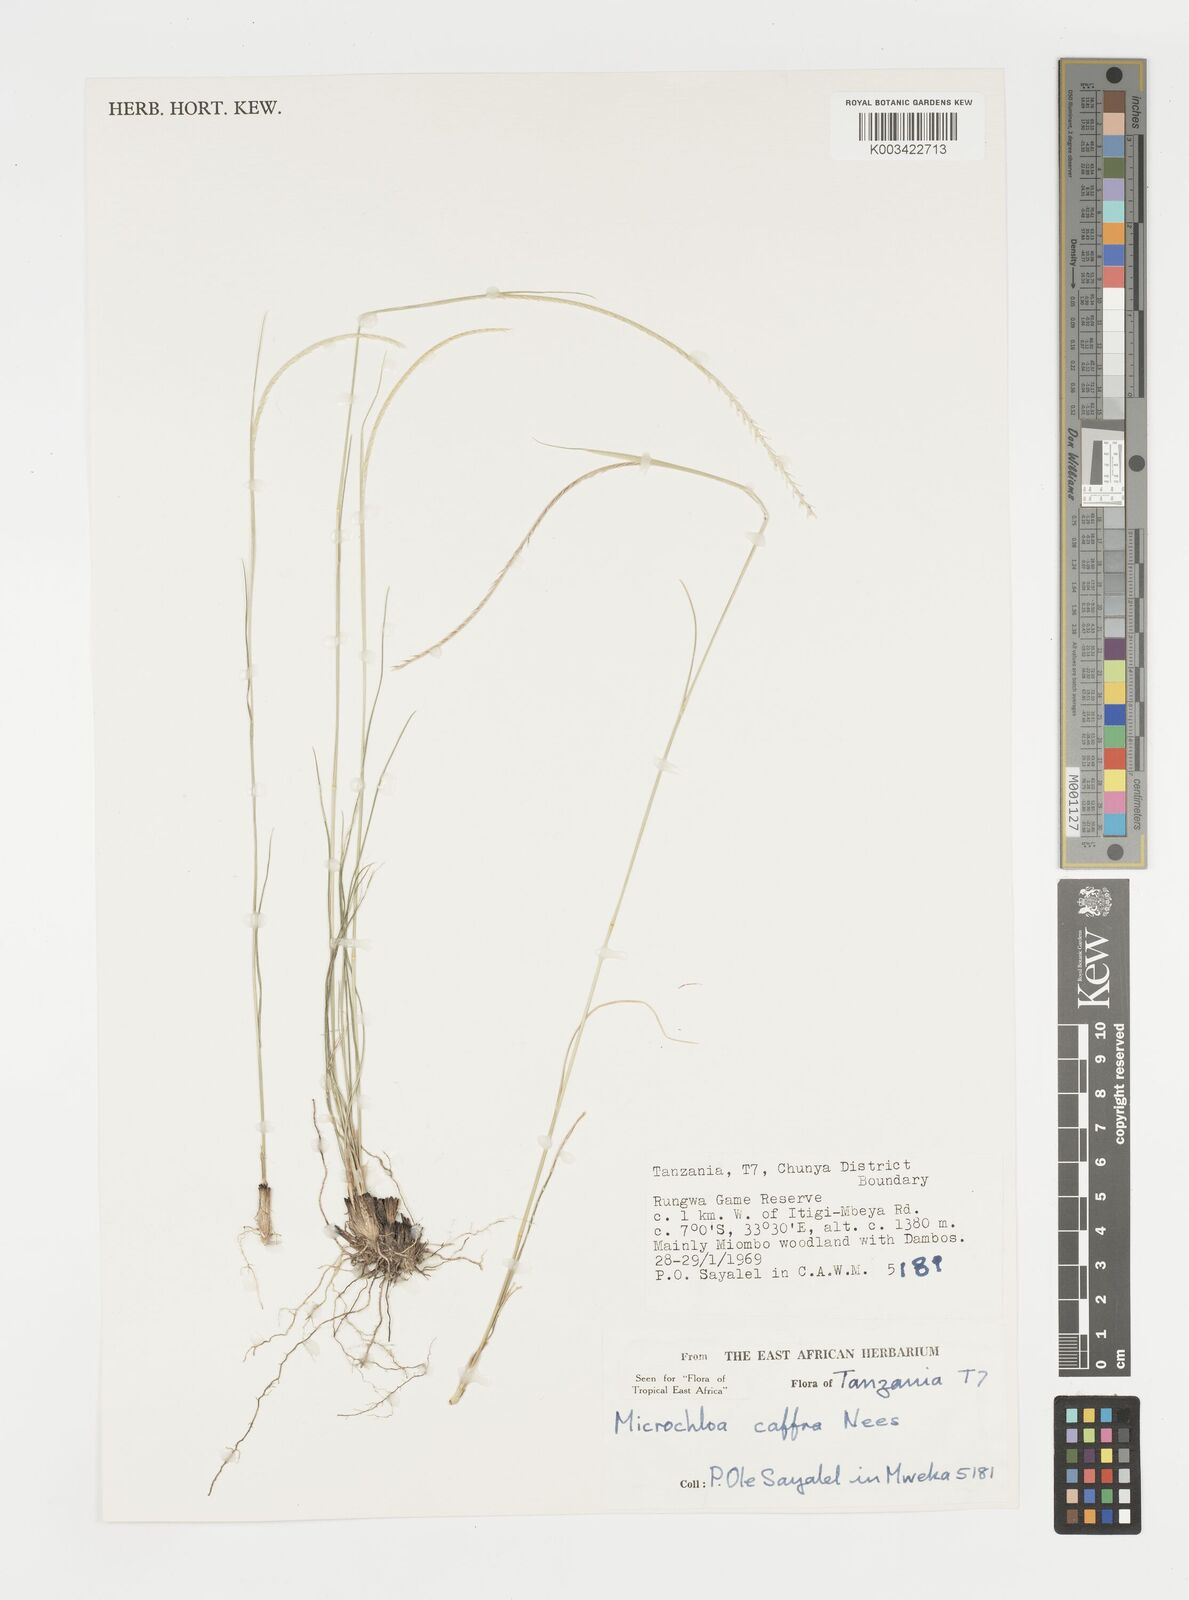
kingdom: Plantae
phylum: Tracheophyta
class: Liliopsida
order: Poales
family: Poaceae
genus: Microchloa
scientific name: Microchloa caffra
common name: Pincushion grass
